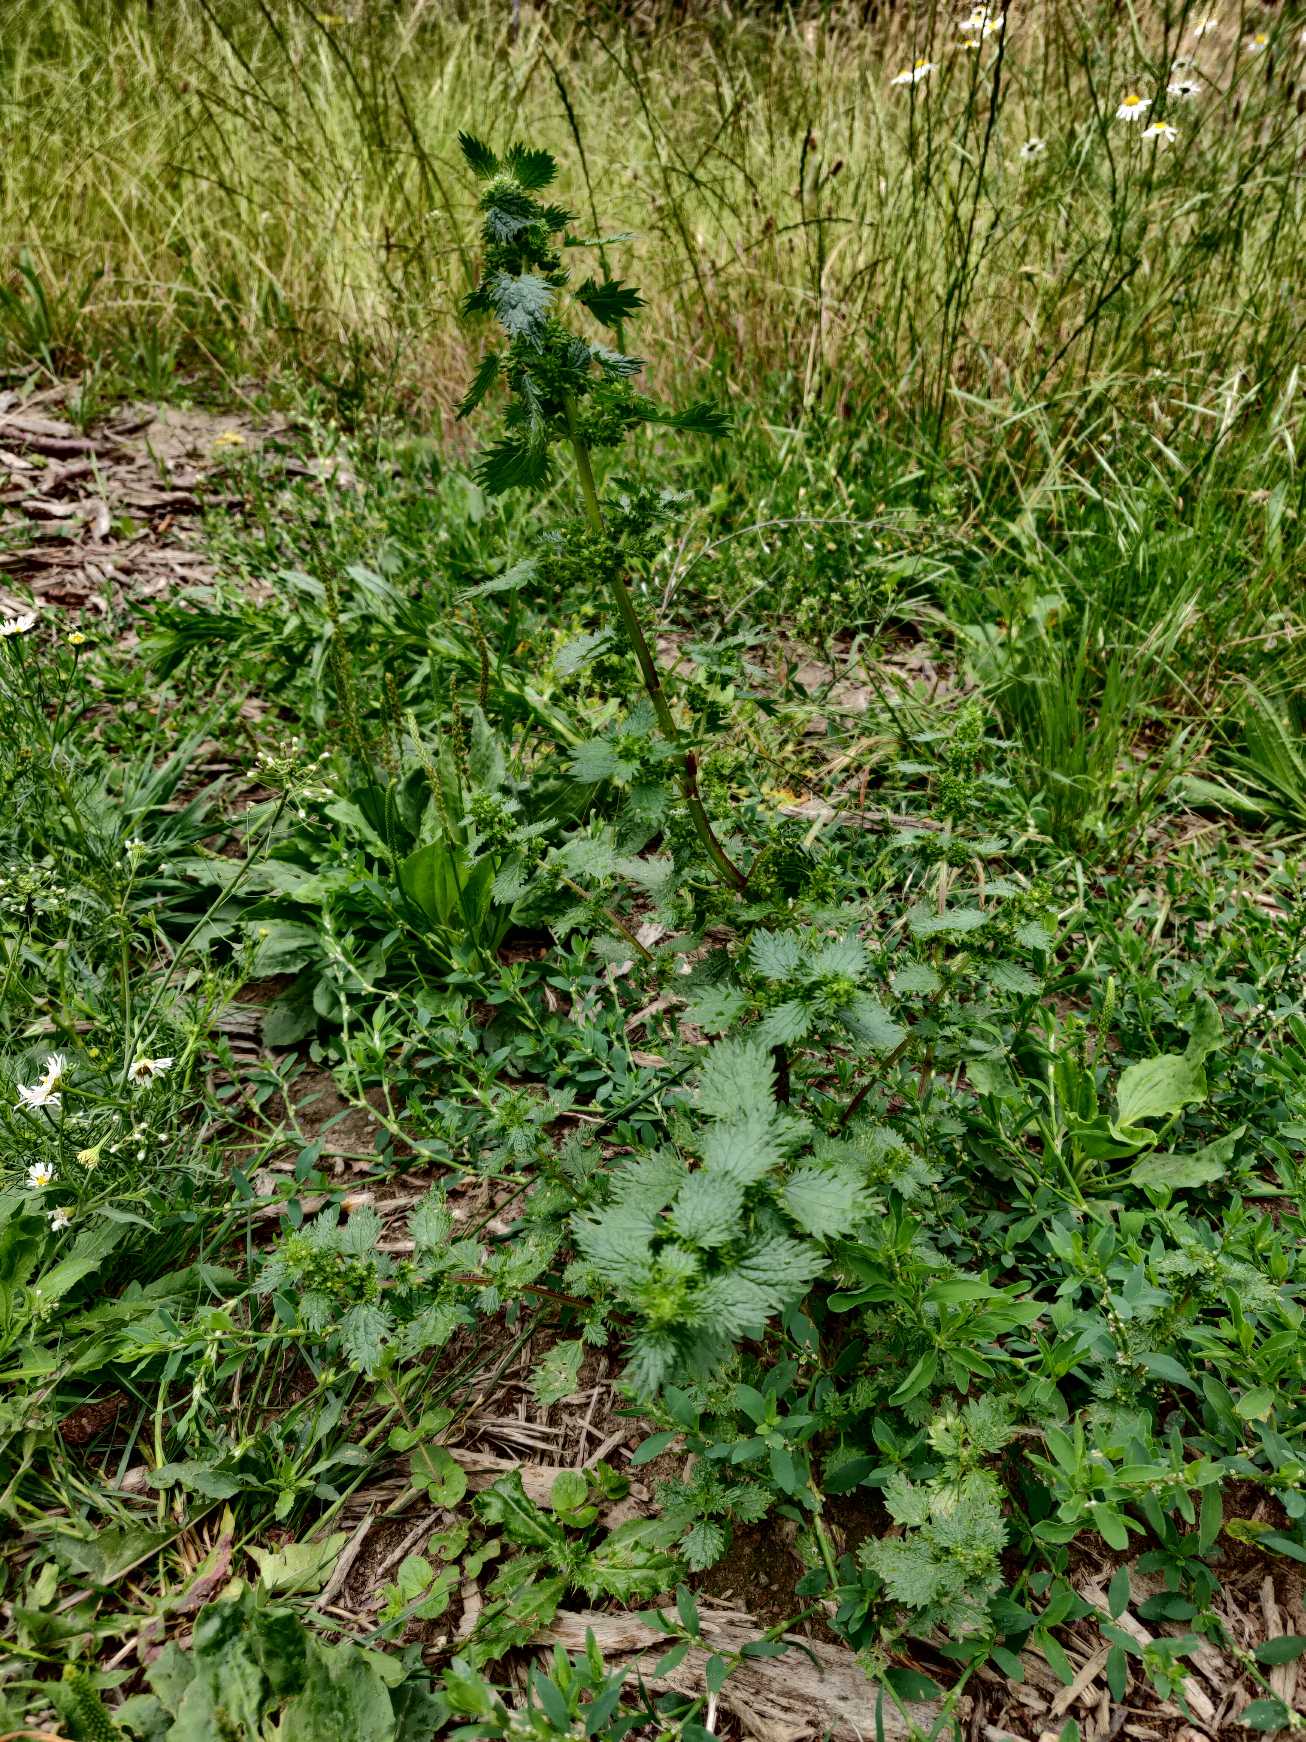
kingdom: Plantae
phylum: Tracheophyta
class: Magnoliopsida
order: Rosales
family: Urticaceae
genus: Urtica
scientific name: Urtica urens
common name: Liden nælde
